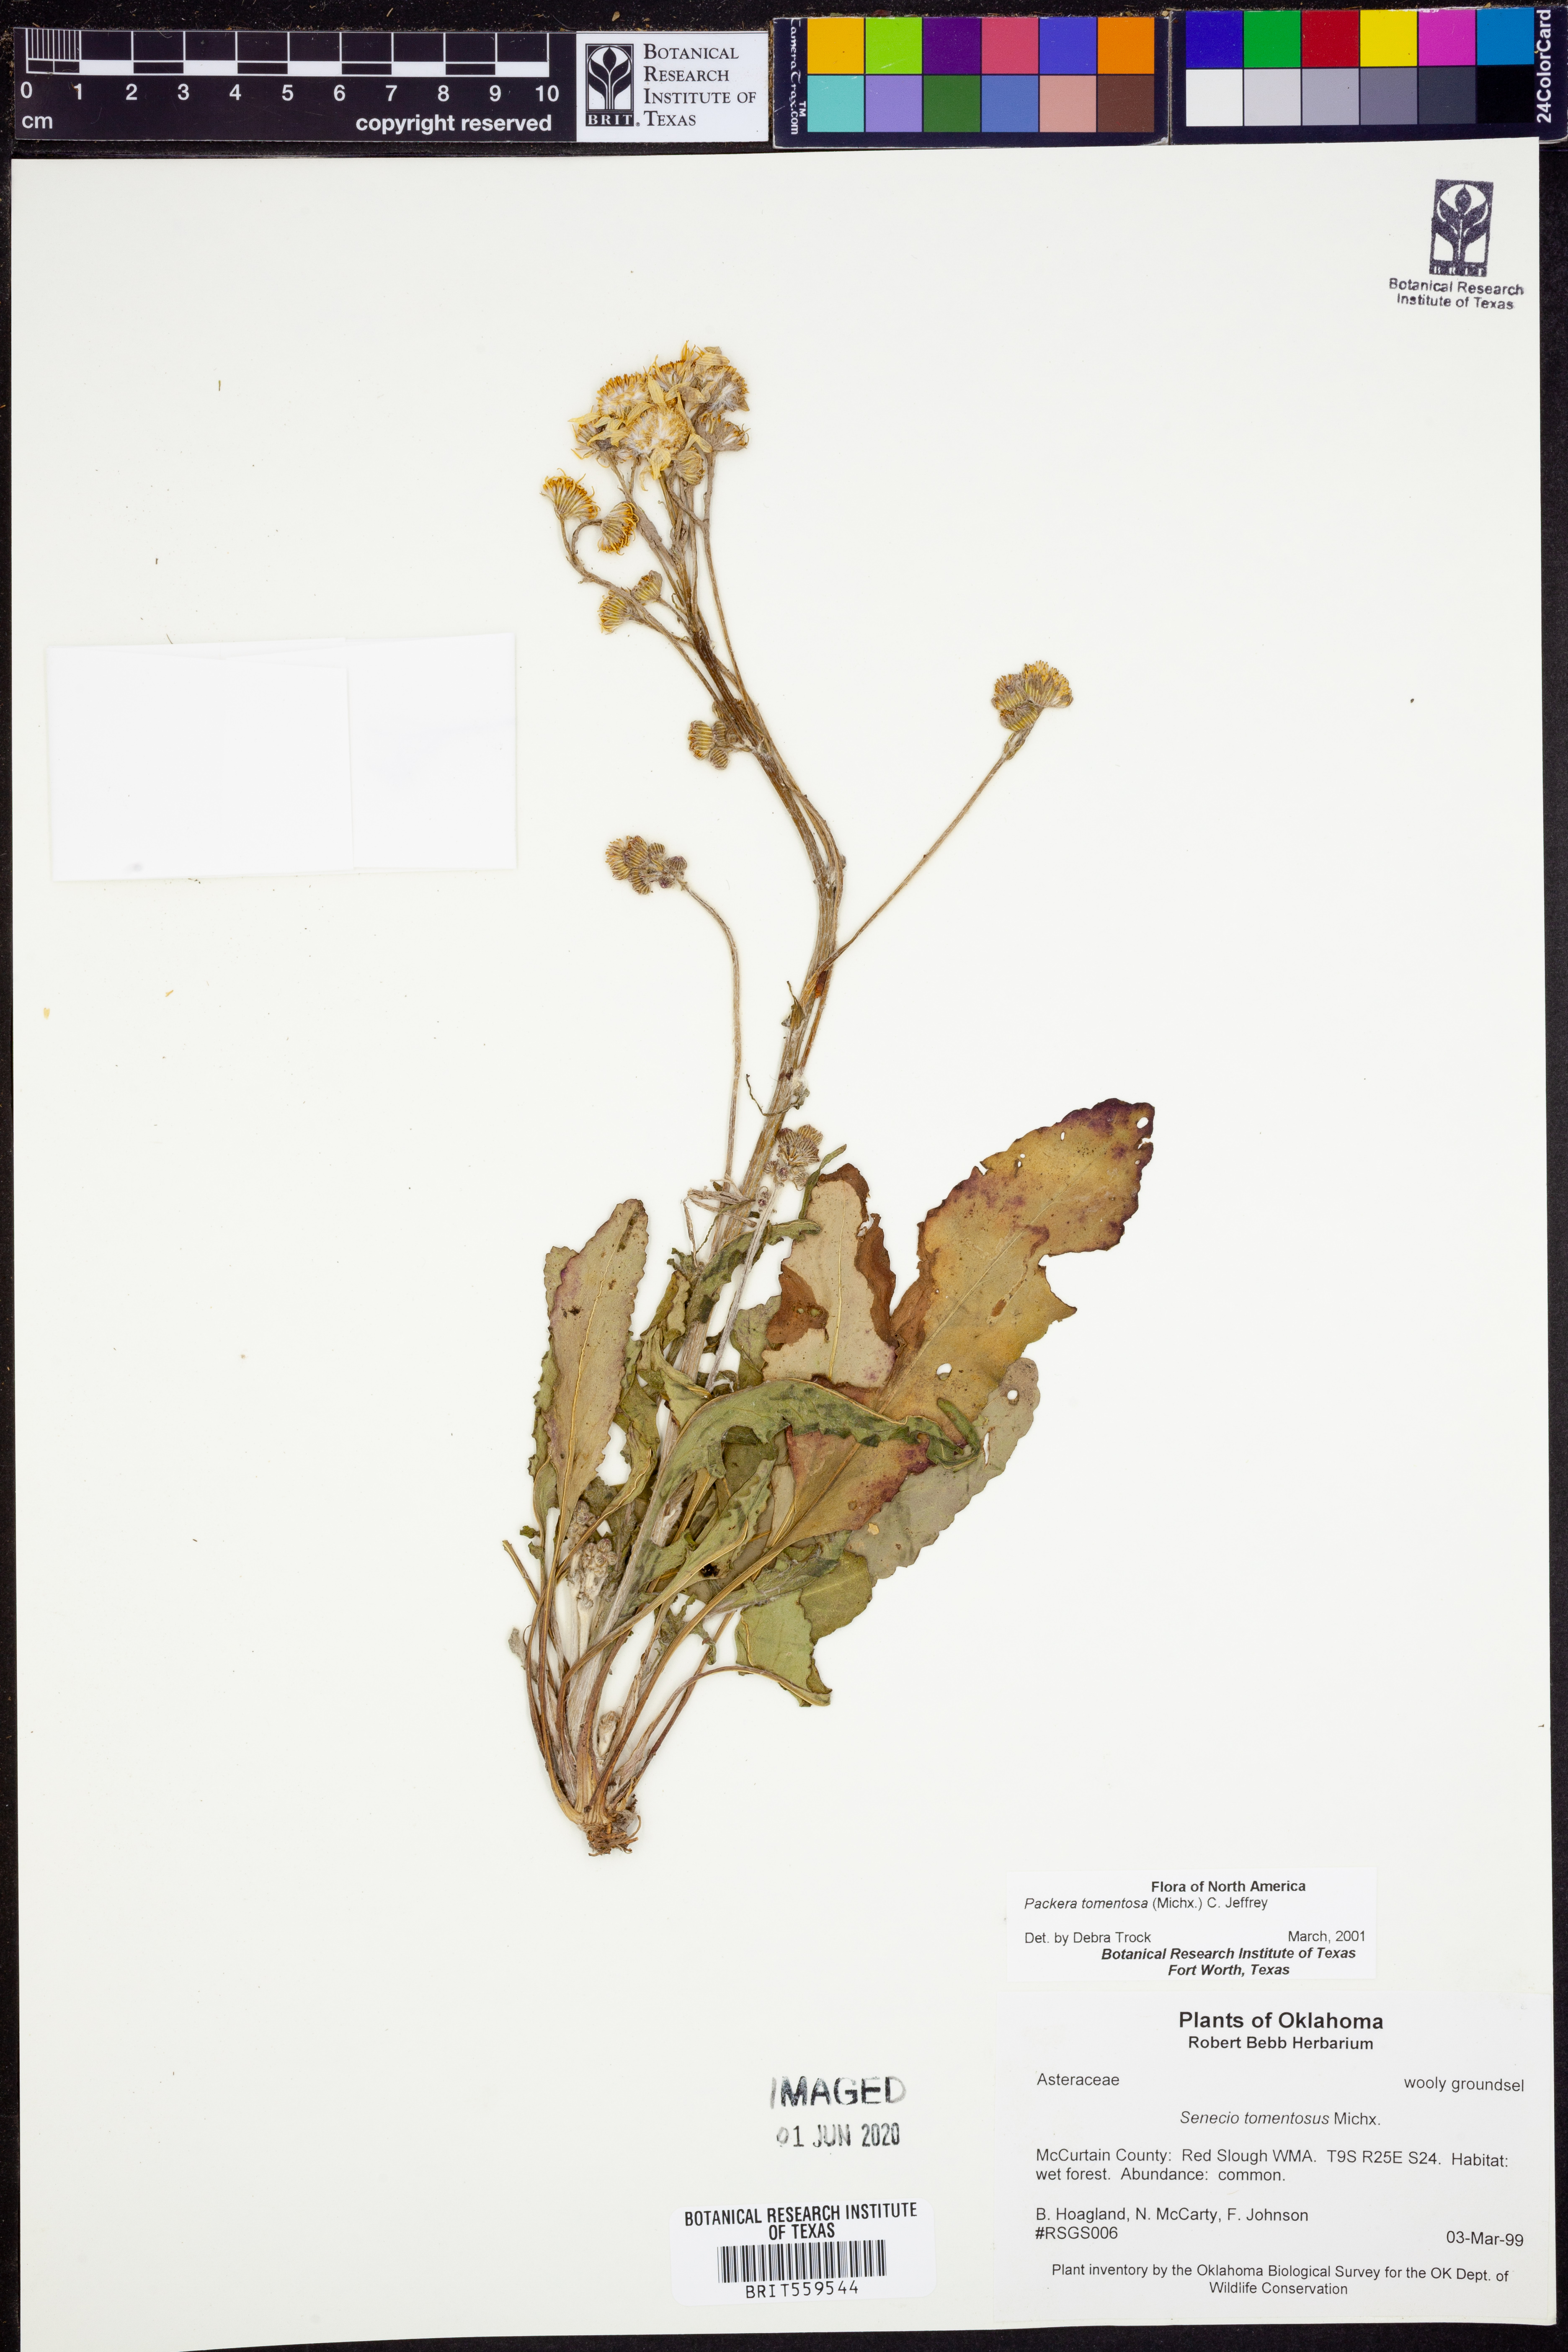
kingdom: Plantae
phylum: Tracheophyta
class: Magnoliopsida
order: Asterales
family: Asteraceae
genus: Packera
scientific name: Packera dubia
